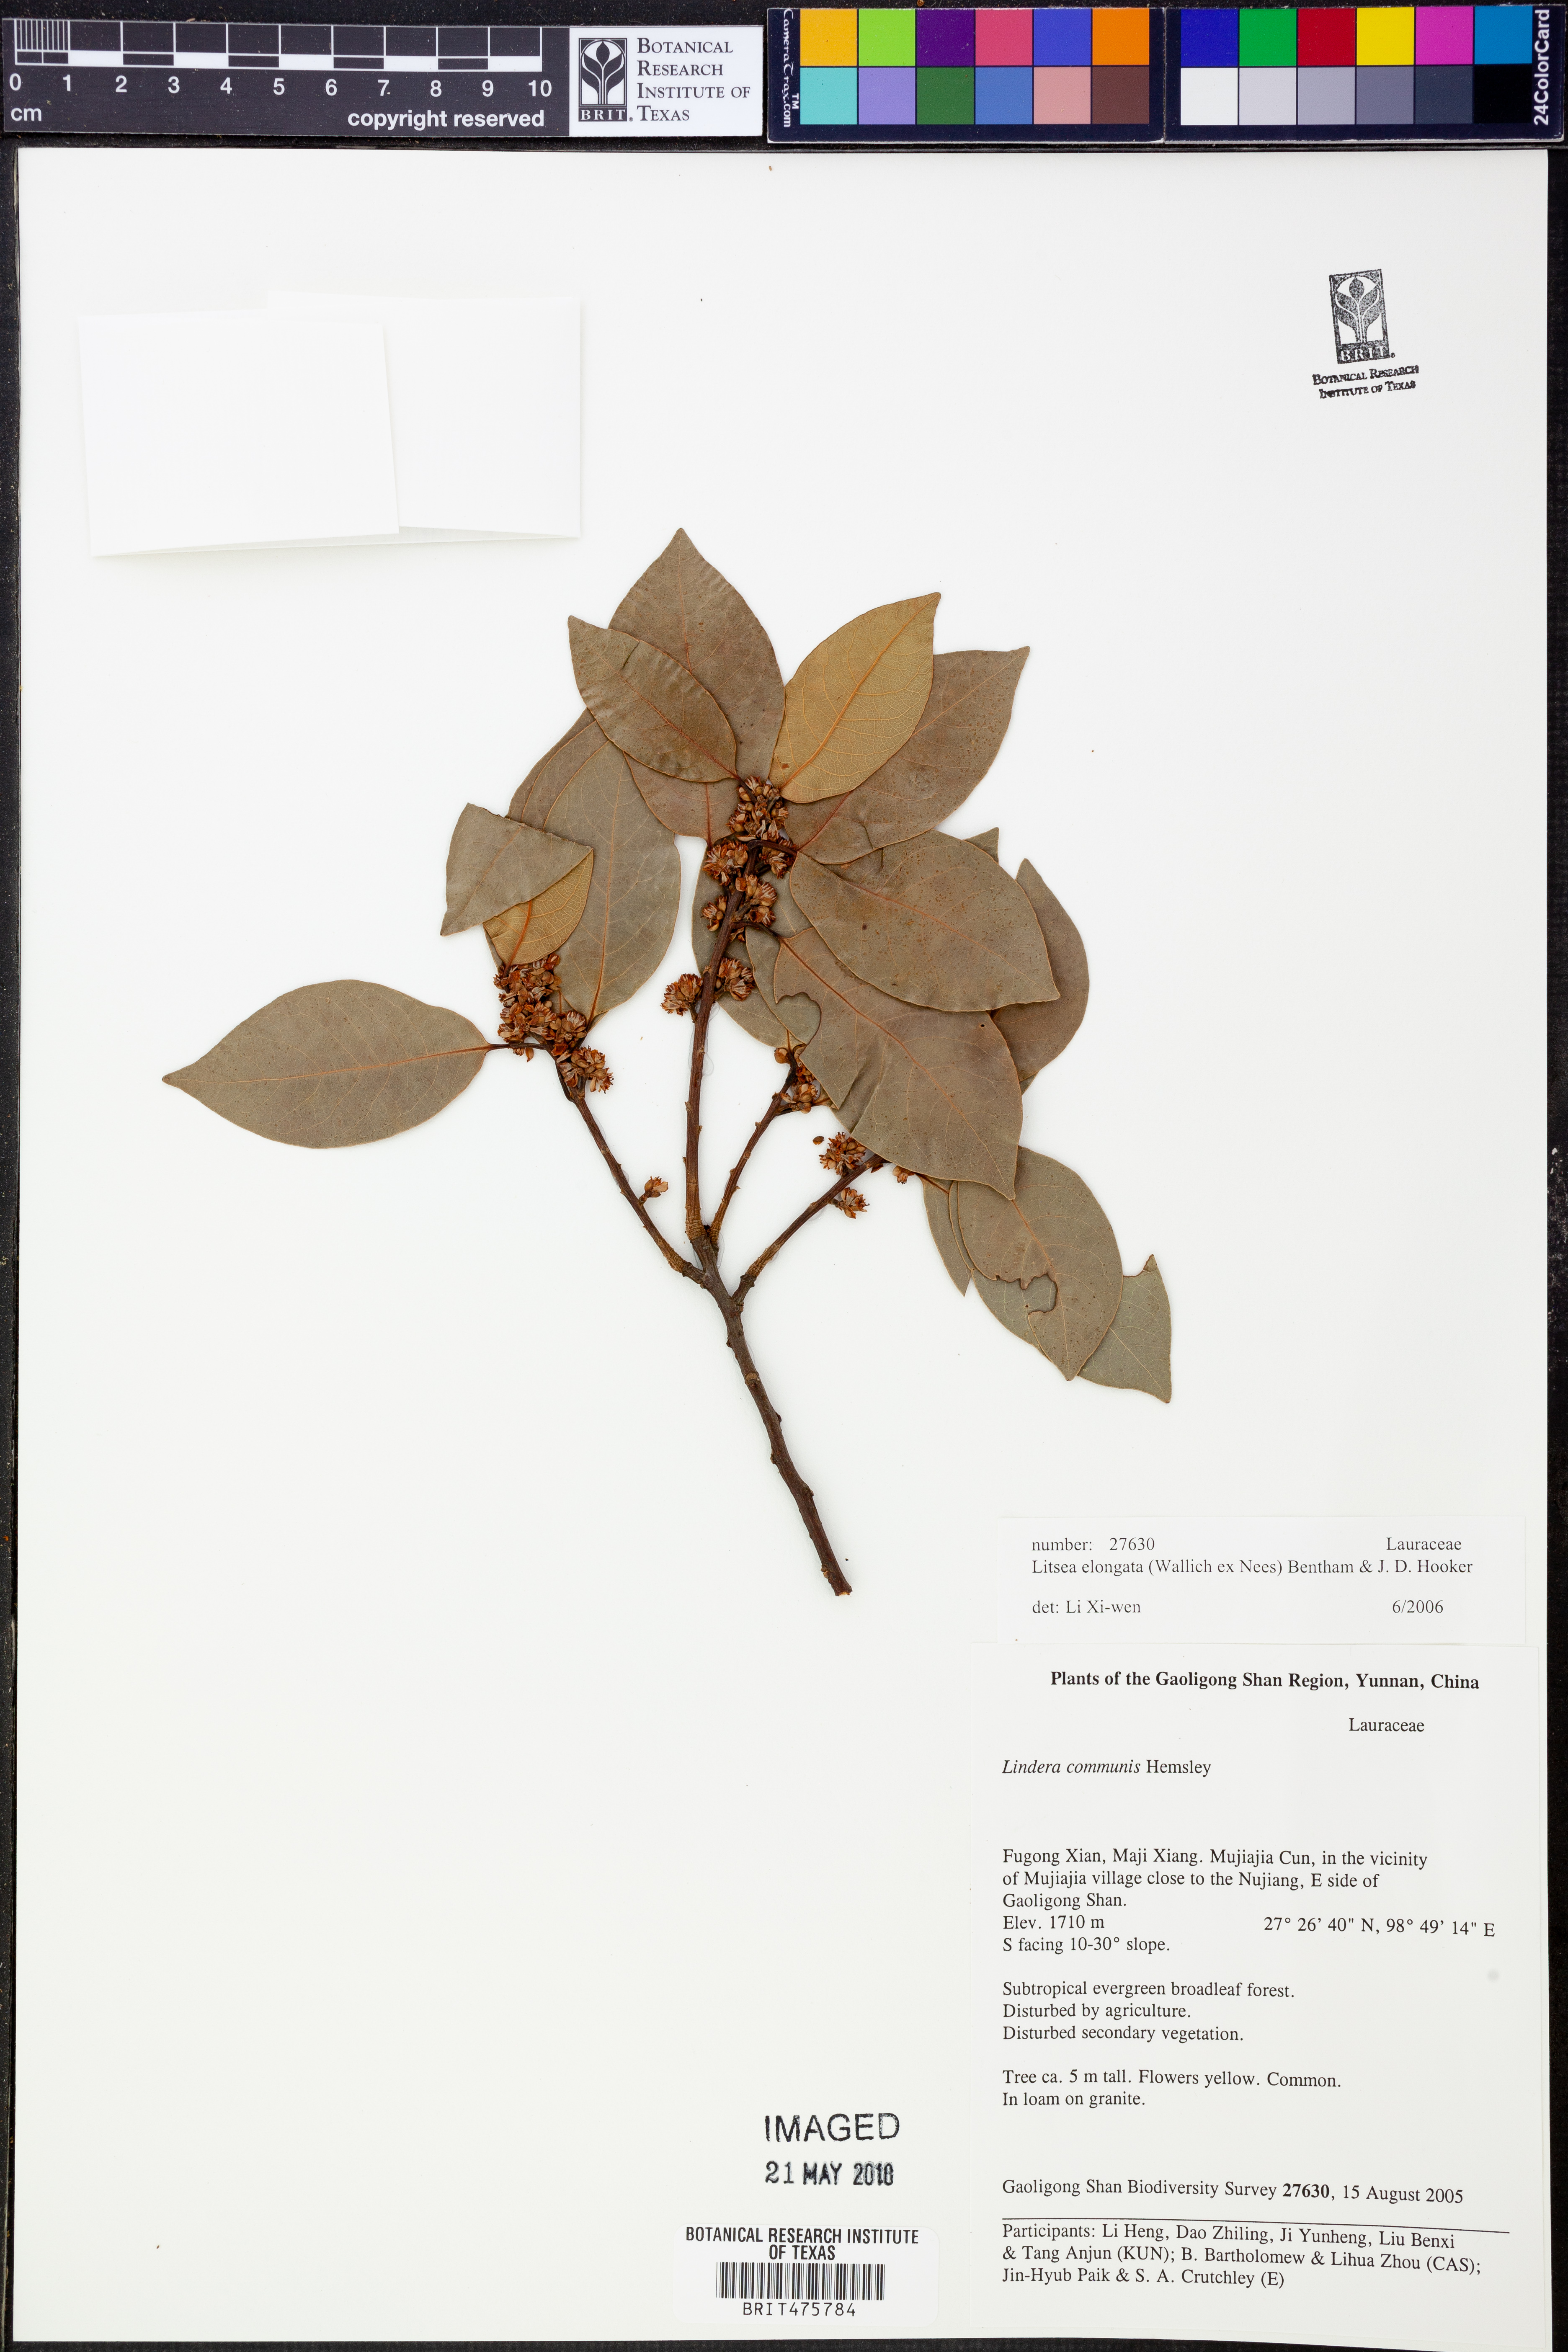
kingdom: Plantae
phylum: Tracheophyta
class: Magnoliopsida
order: Laurales
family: Lauraceae
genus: Litsea
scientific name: Litsea elongata
